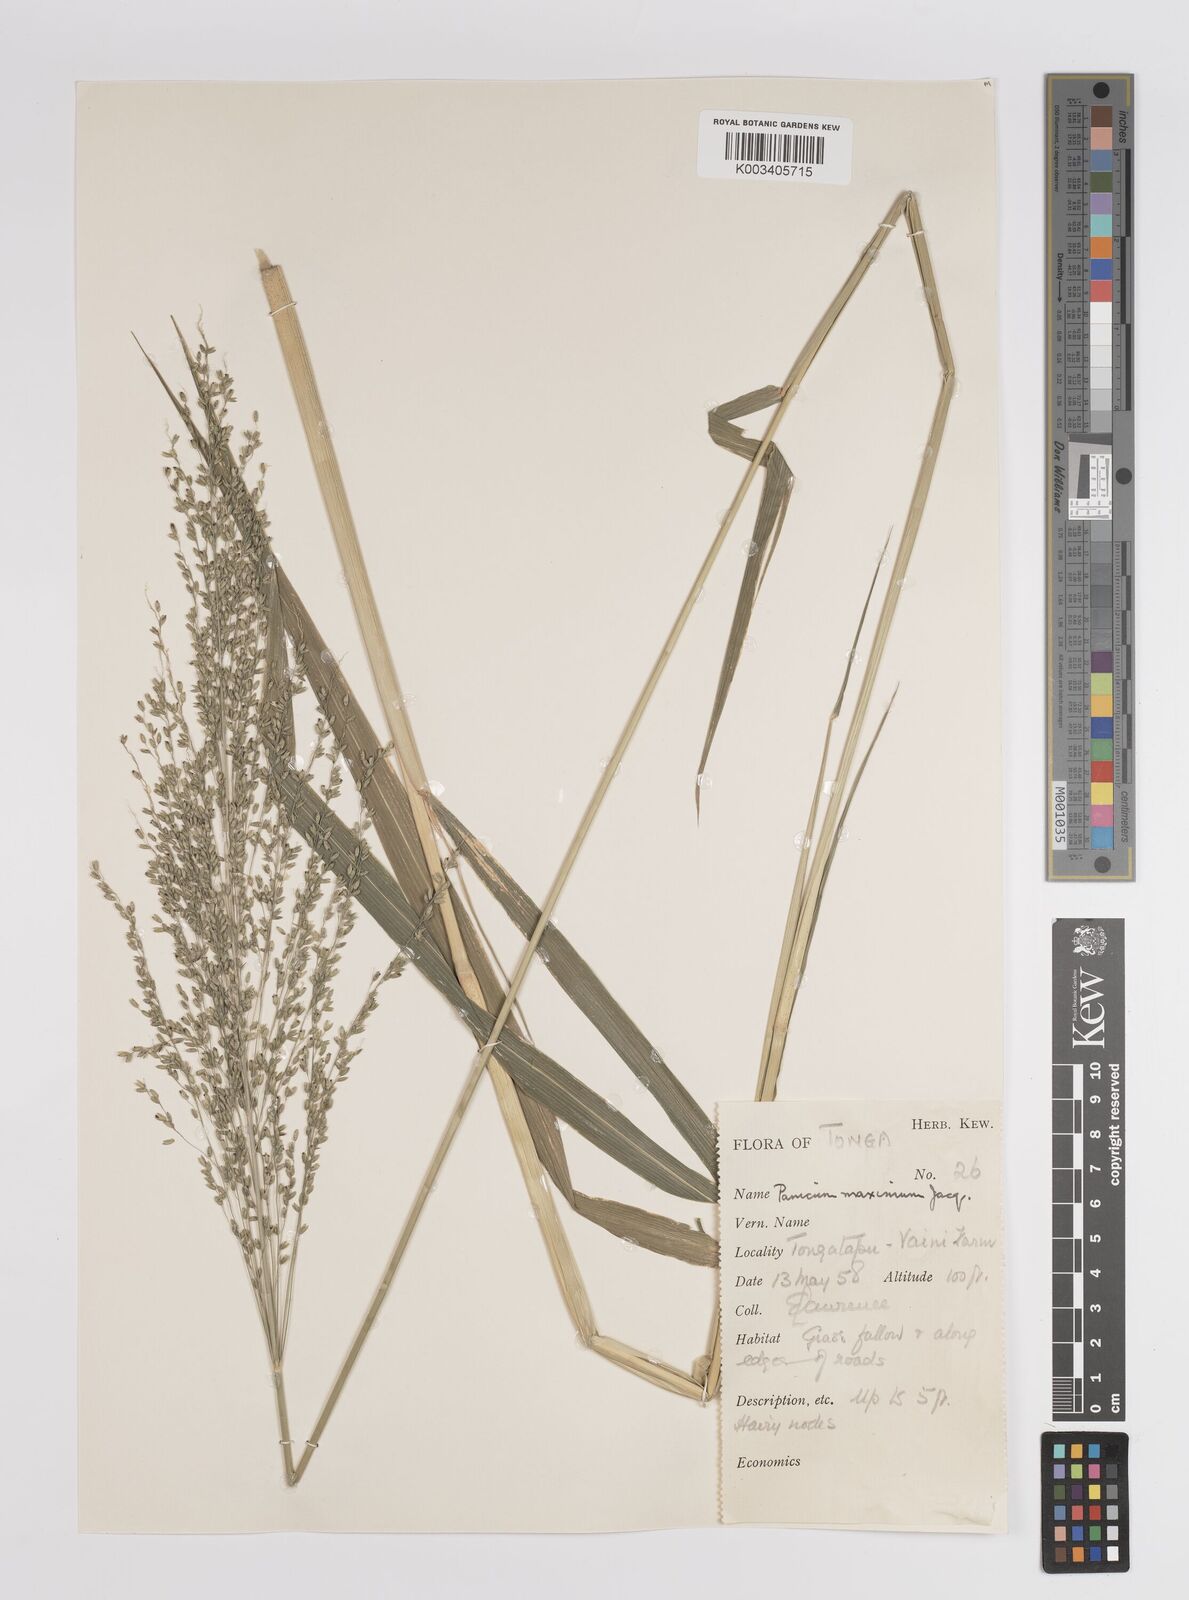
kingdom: Plantae
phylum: Tracheophyta
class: Liliopsida
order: Poales
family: Poaceae
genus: Megathyrsus
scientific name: Megathyrsus maximus
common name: Guineagrass
